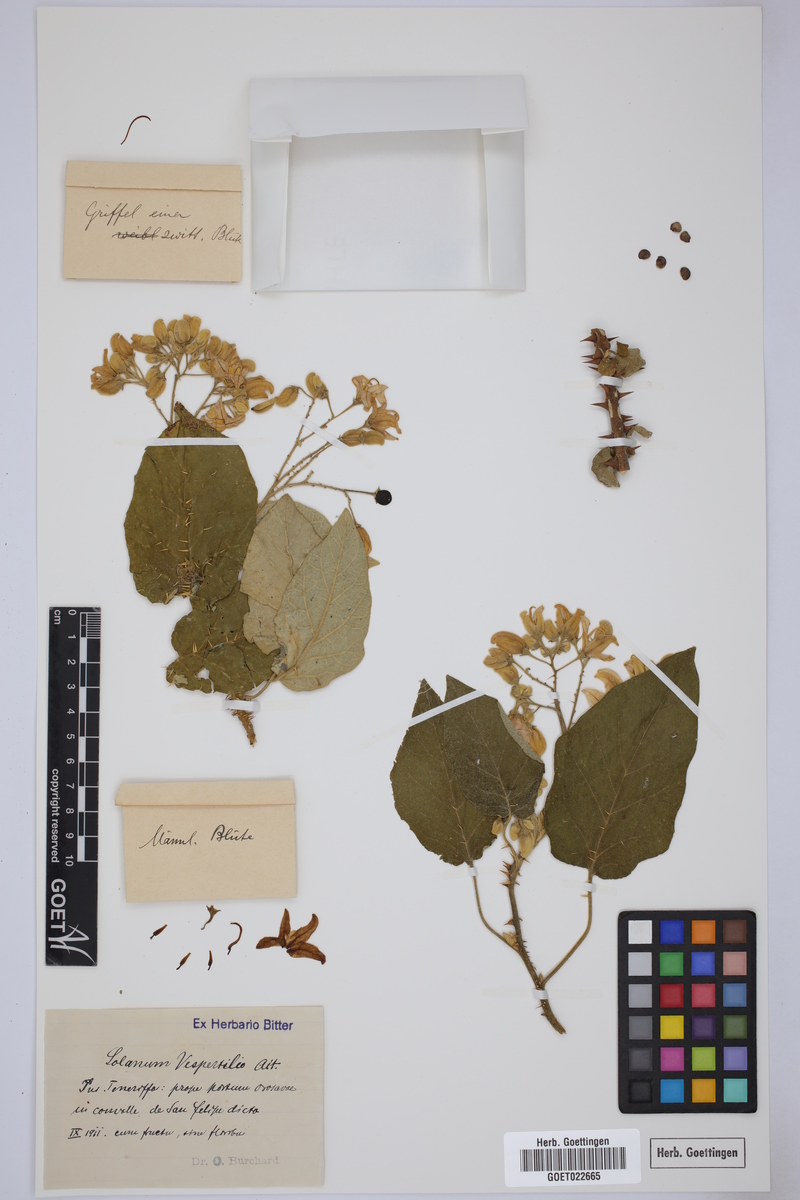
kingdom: Plantae
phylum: Tracheophyta
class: Magnoliopsida
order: Solanales
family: Solanaceae
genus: Solanum
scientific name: Solanum vespertilio
